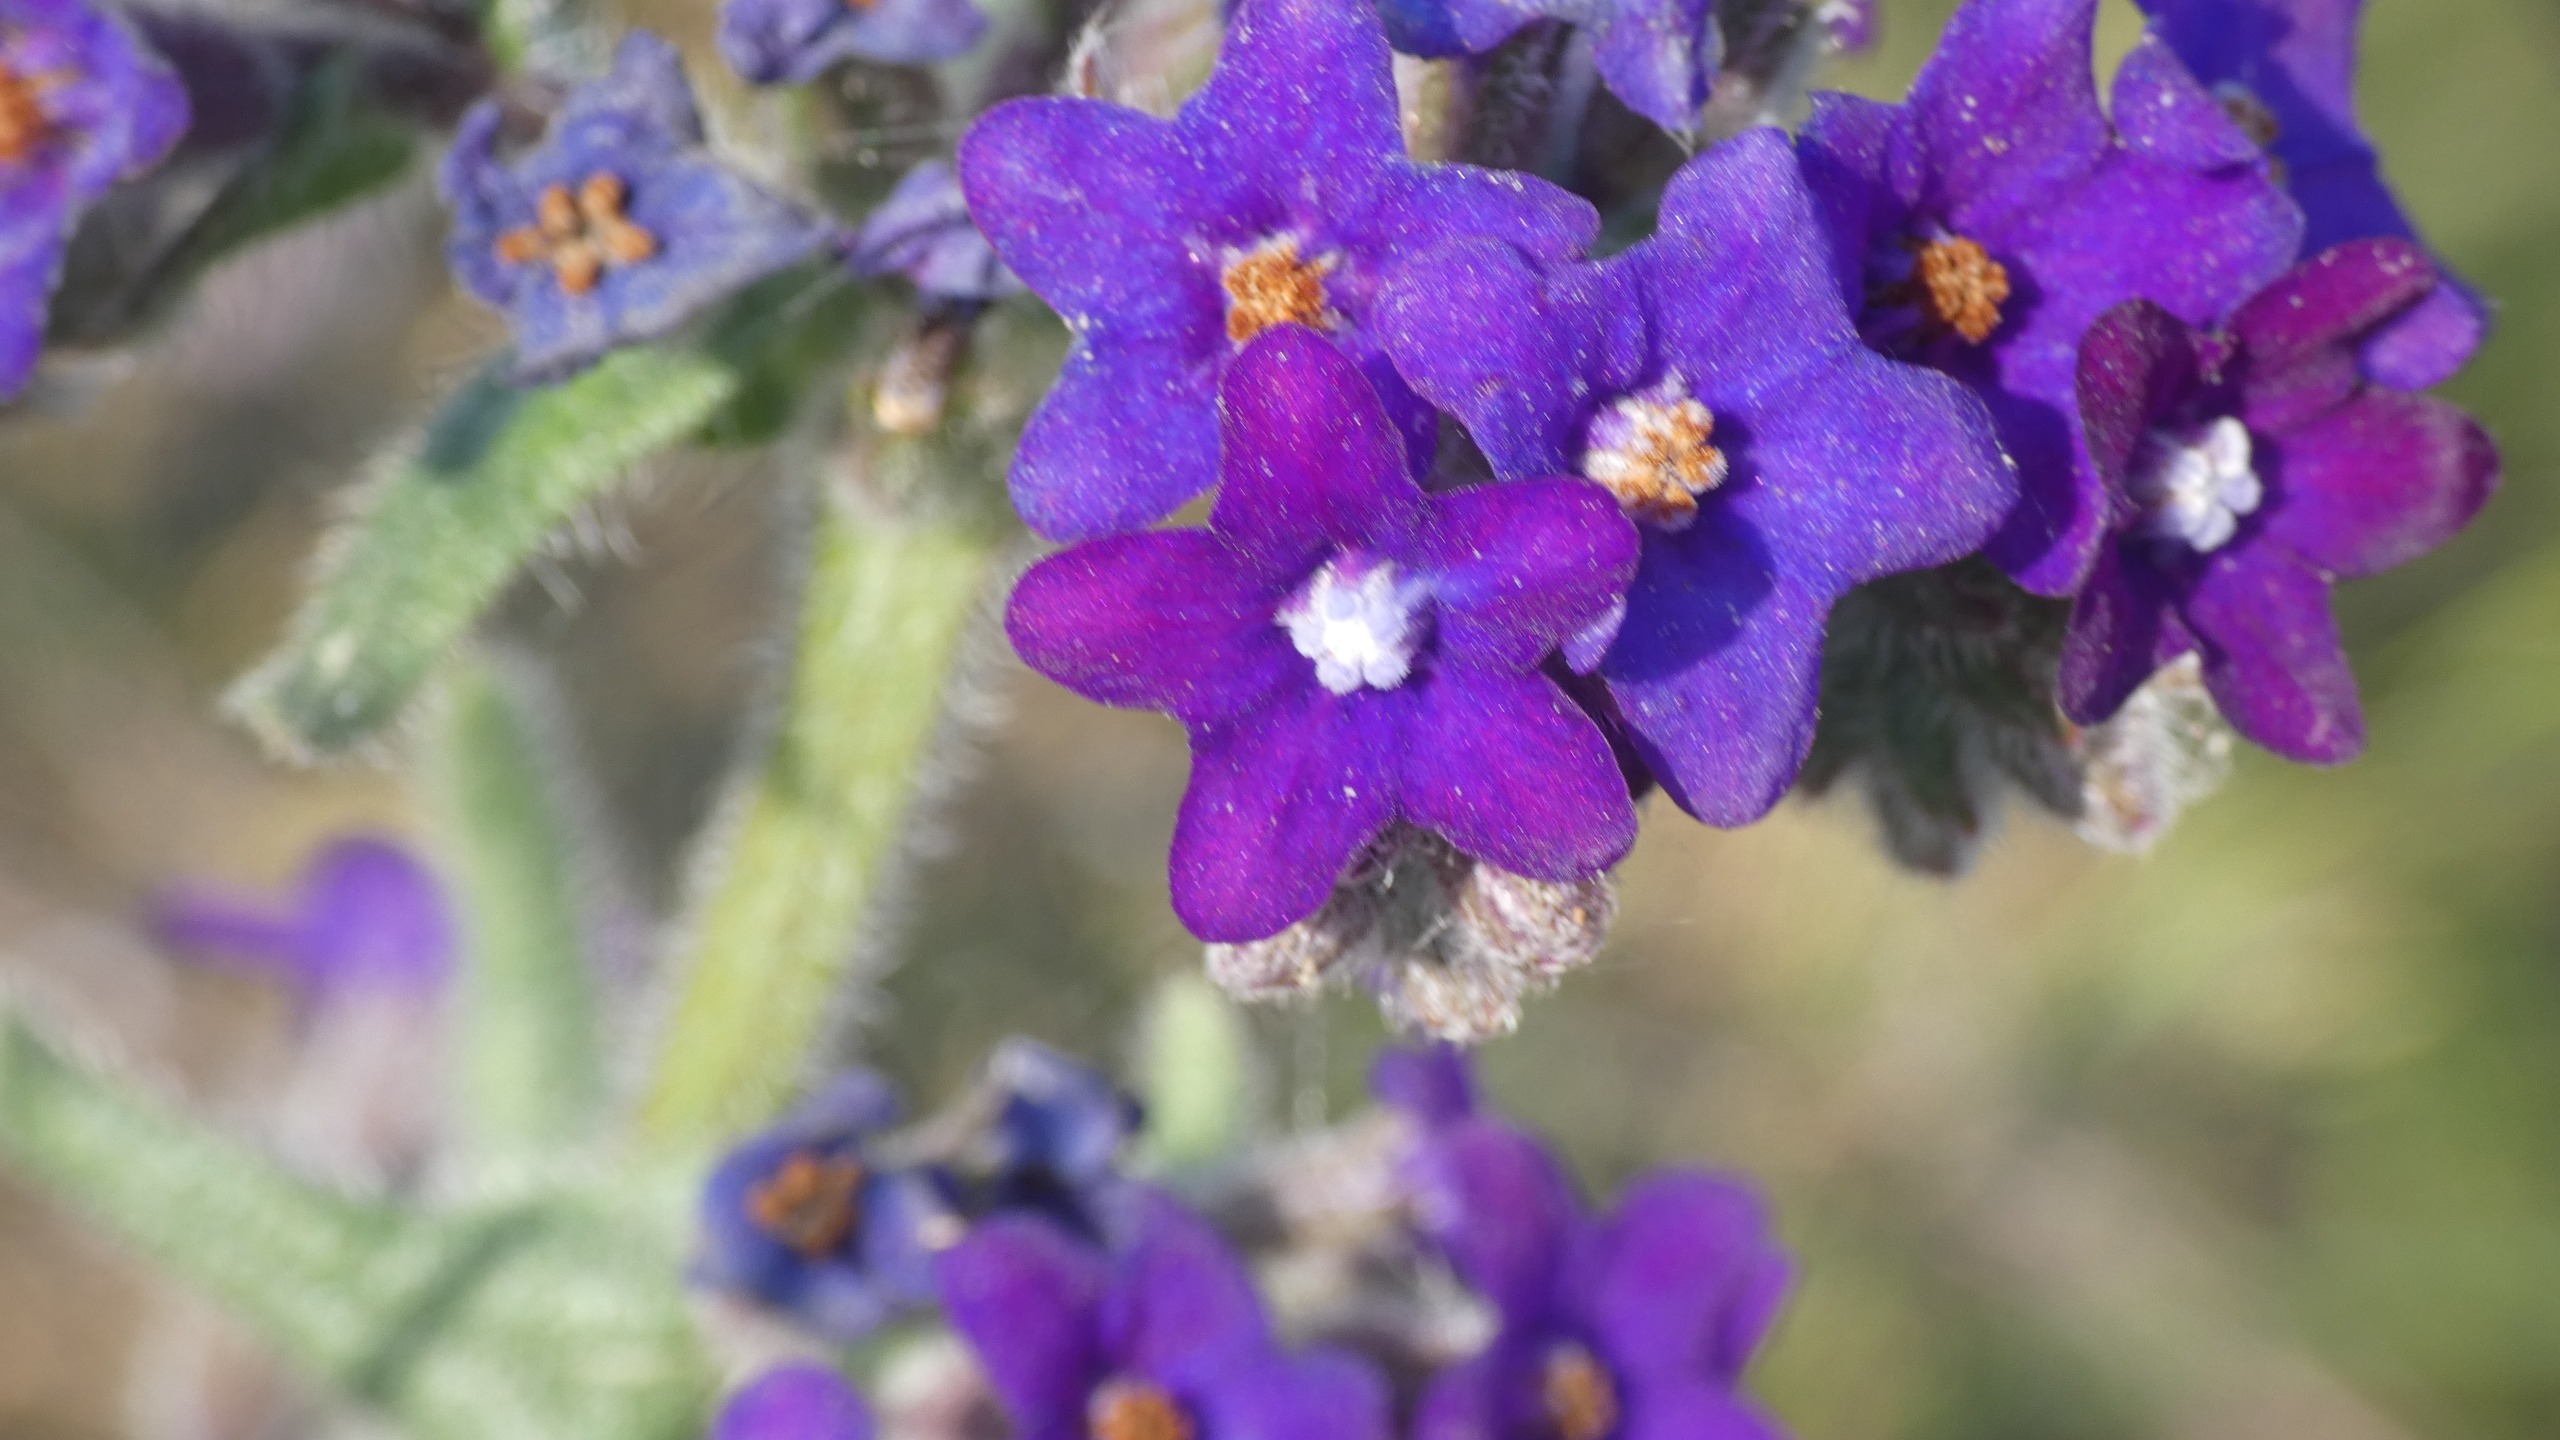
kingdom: Plantae
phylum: Tracheophyta
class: Magnoliopsida
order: Boraginales
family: Boraginaceae
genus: Anchusa
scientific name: Anchusa officinalis
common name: Læge-oksetunge
